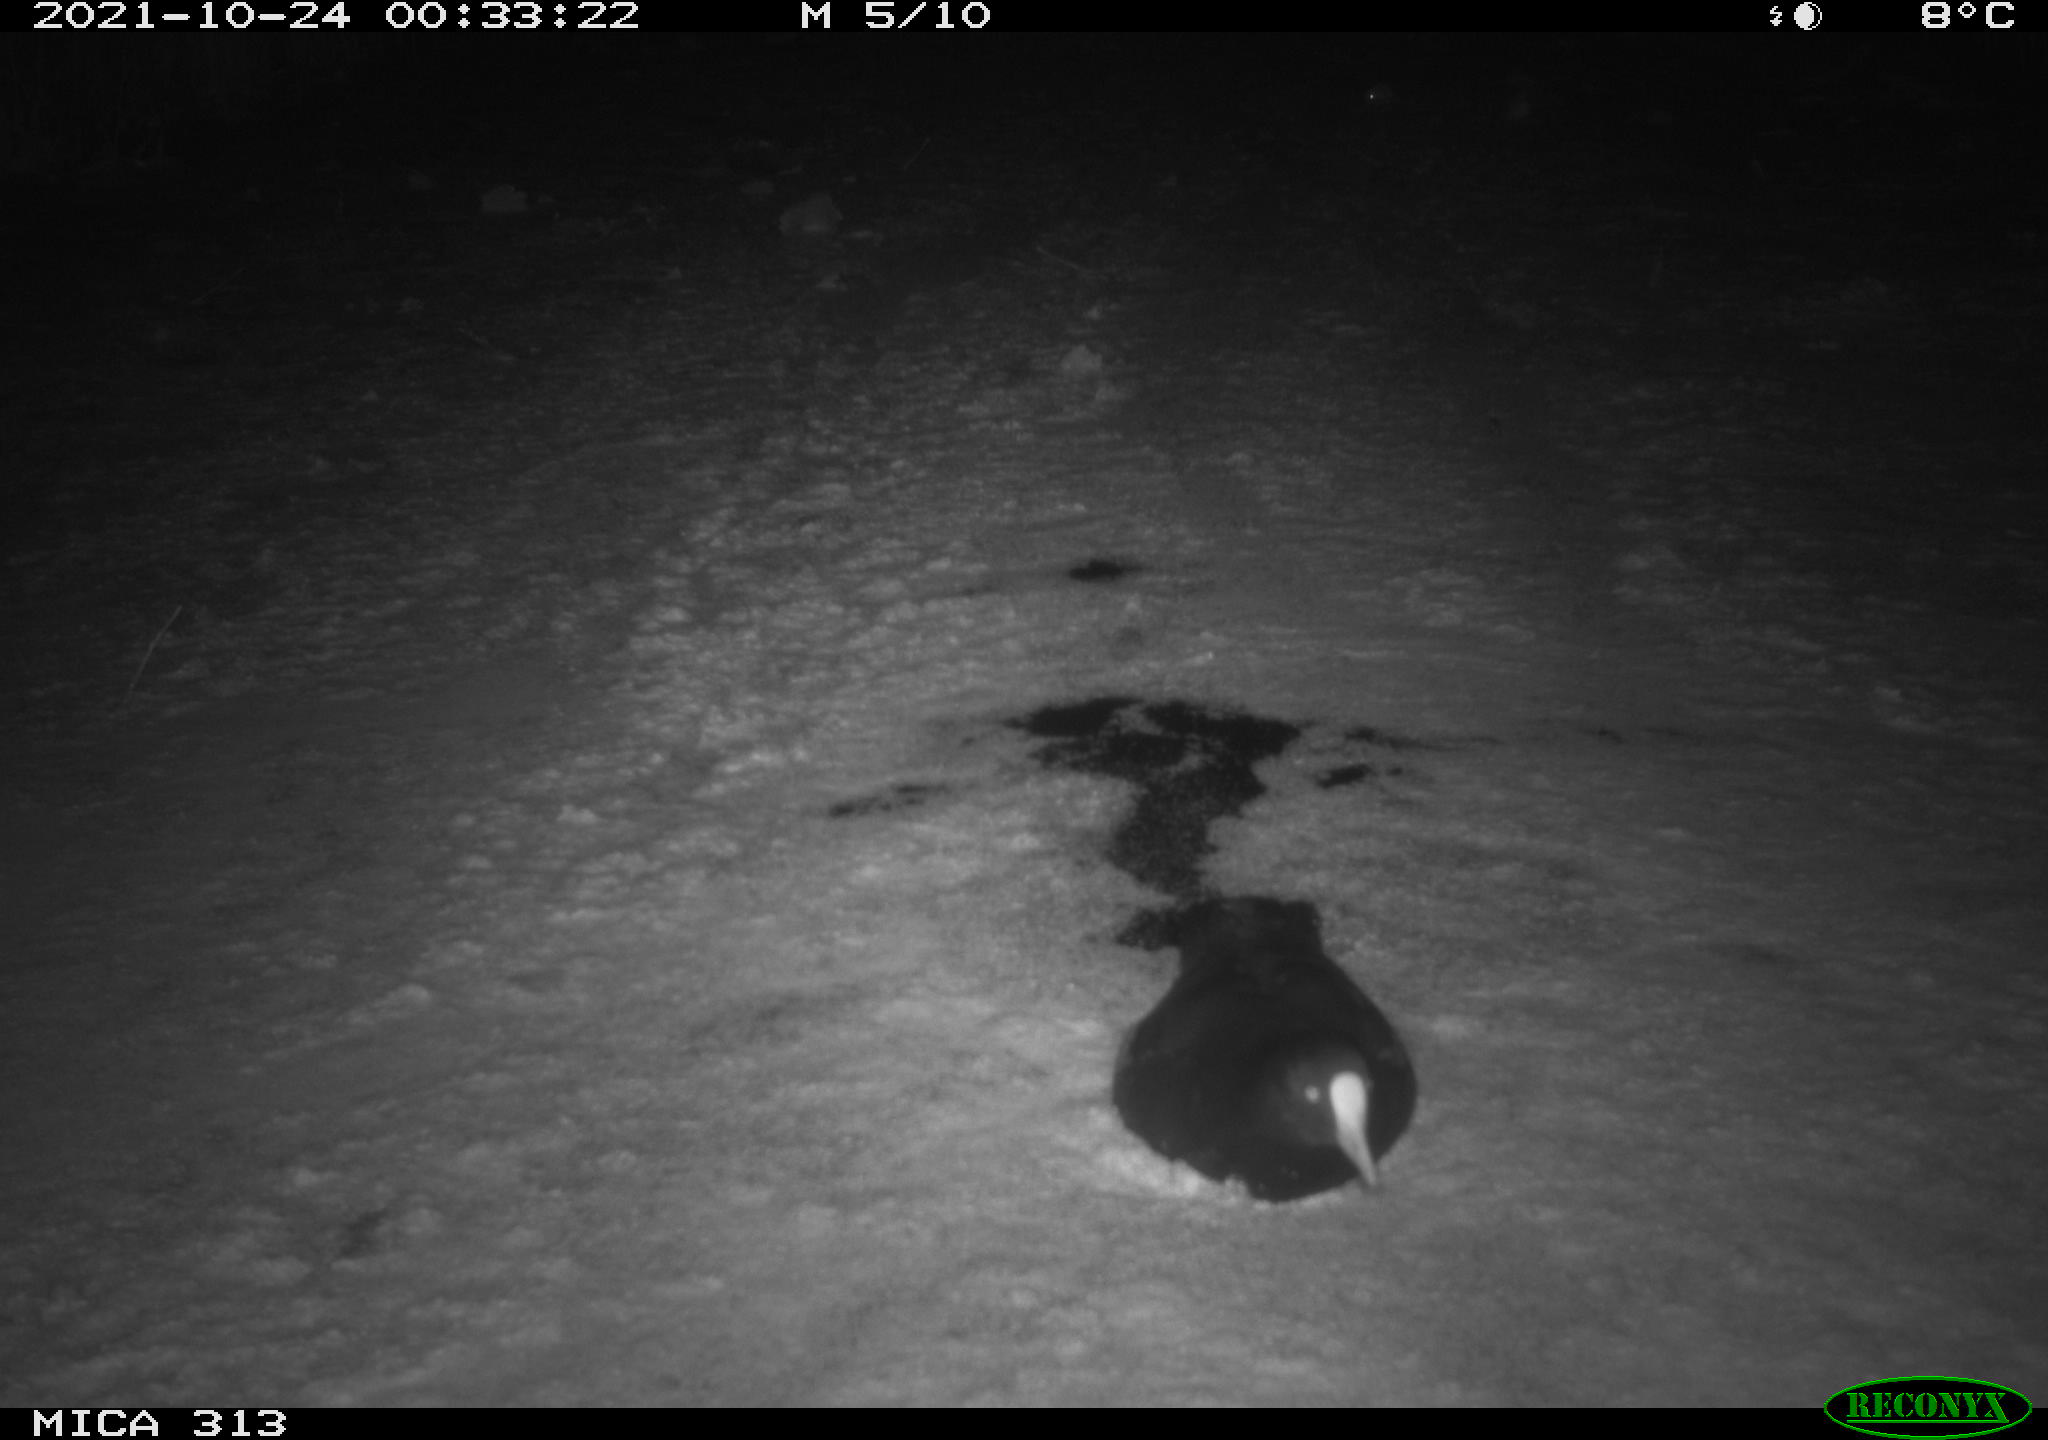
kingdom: Animalia
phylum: Chordata
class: Aves
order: Gruiformes
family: Rallidae
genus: Fulica
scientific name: Fulica atra
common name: Eurasian coot
